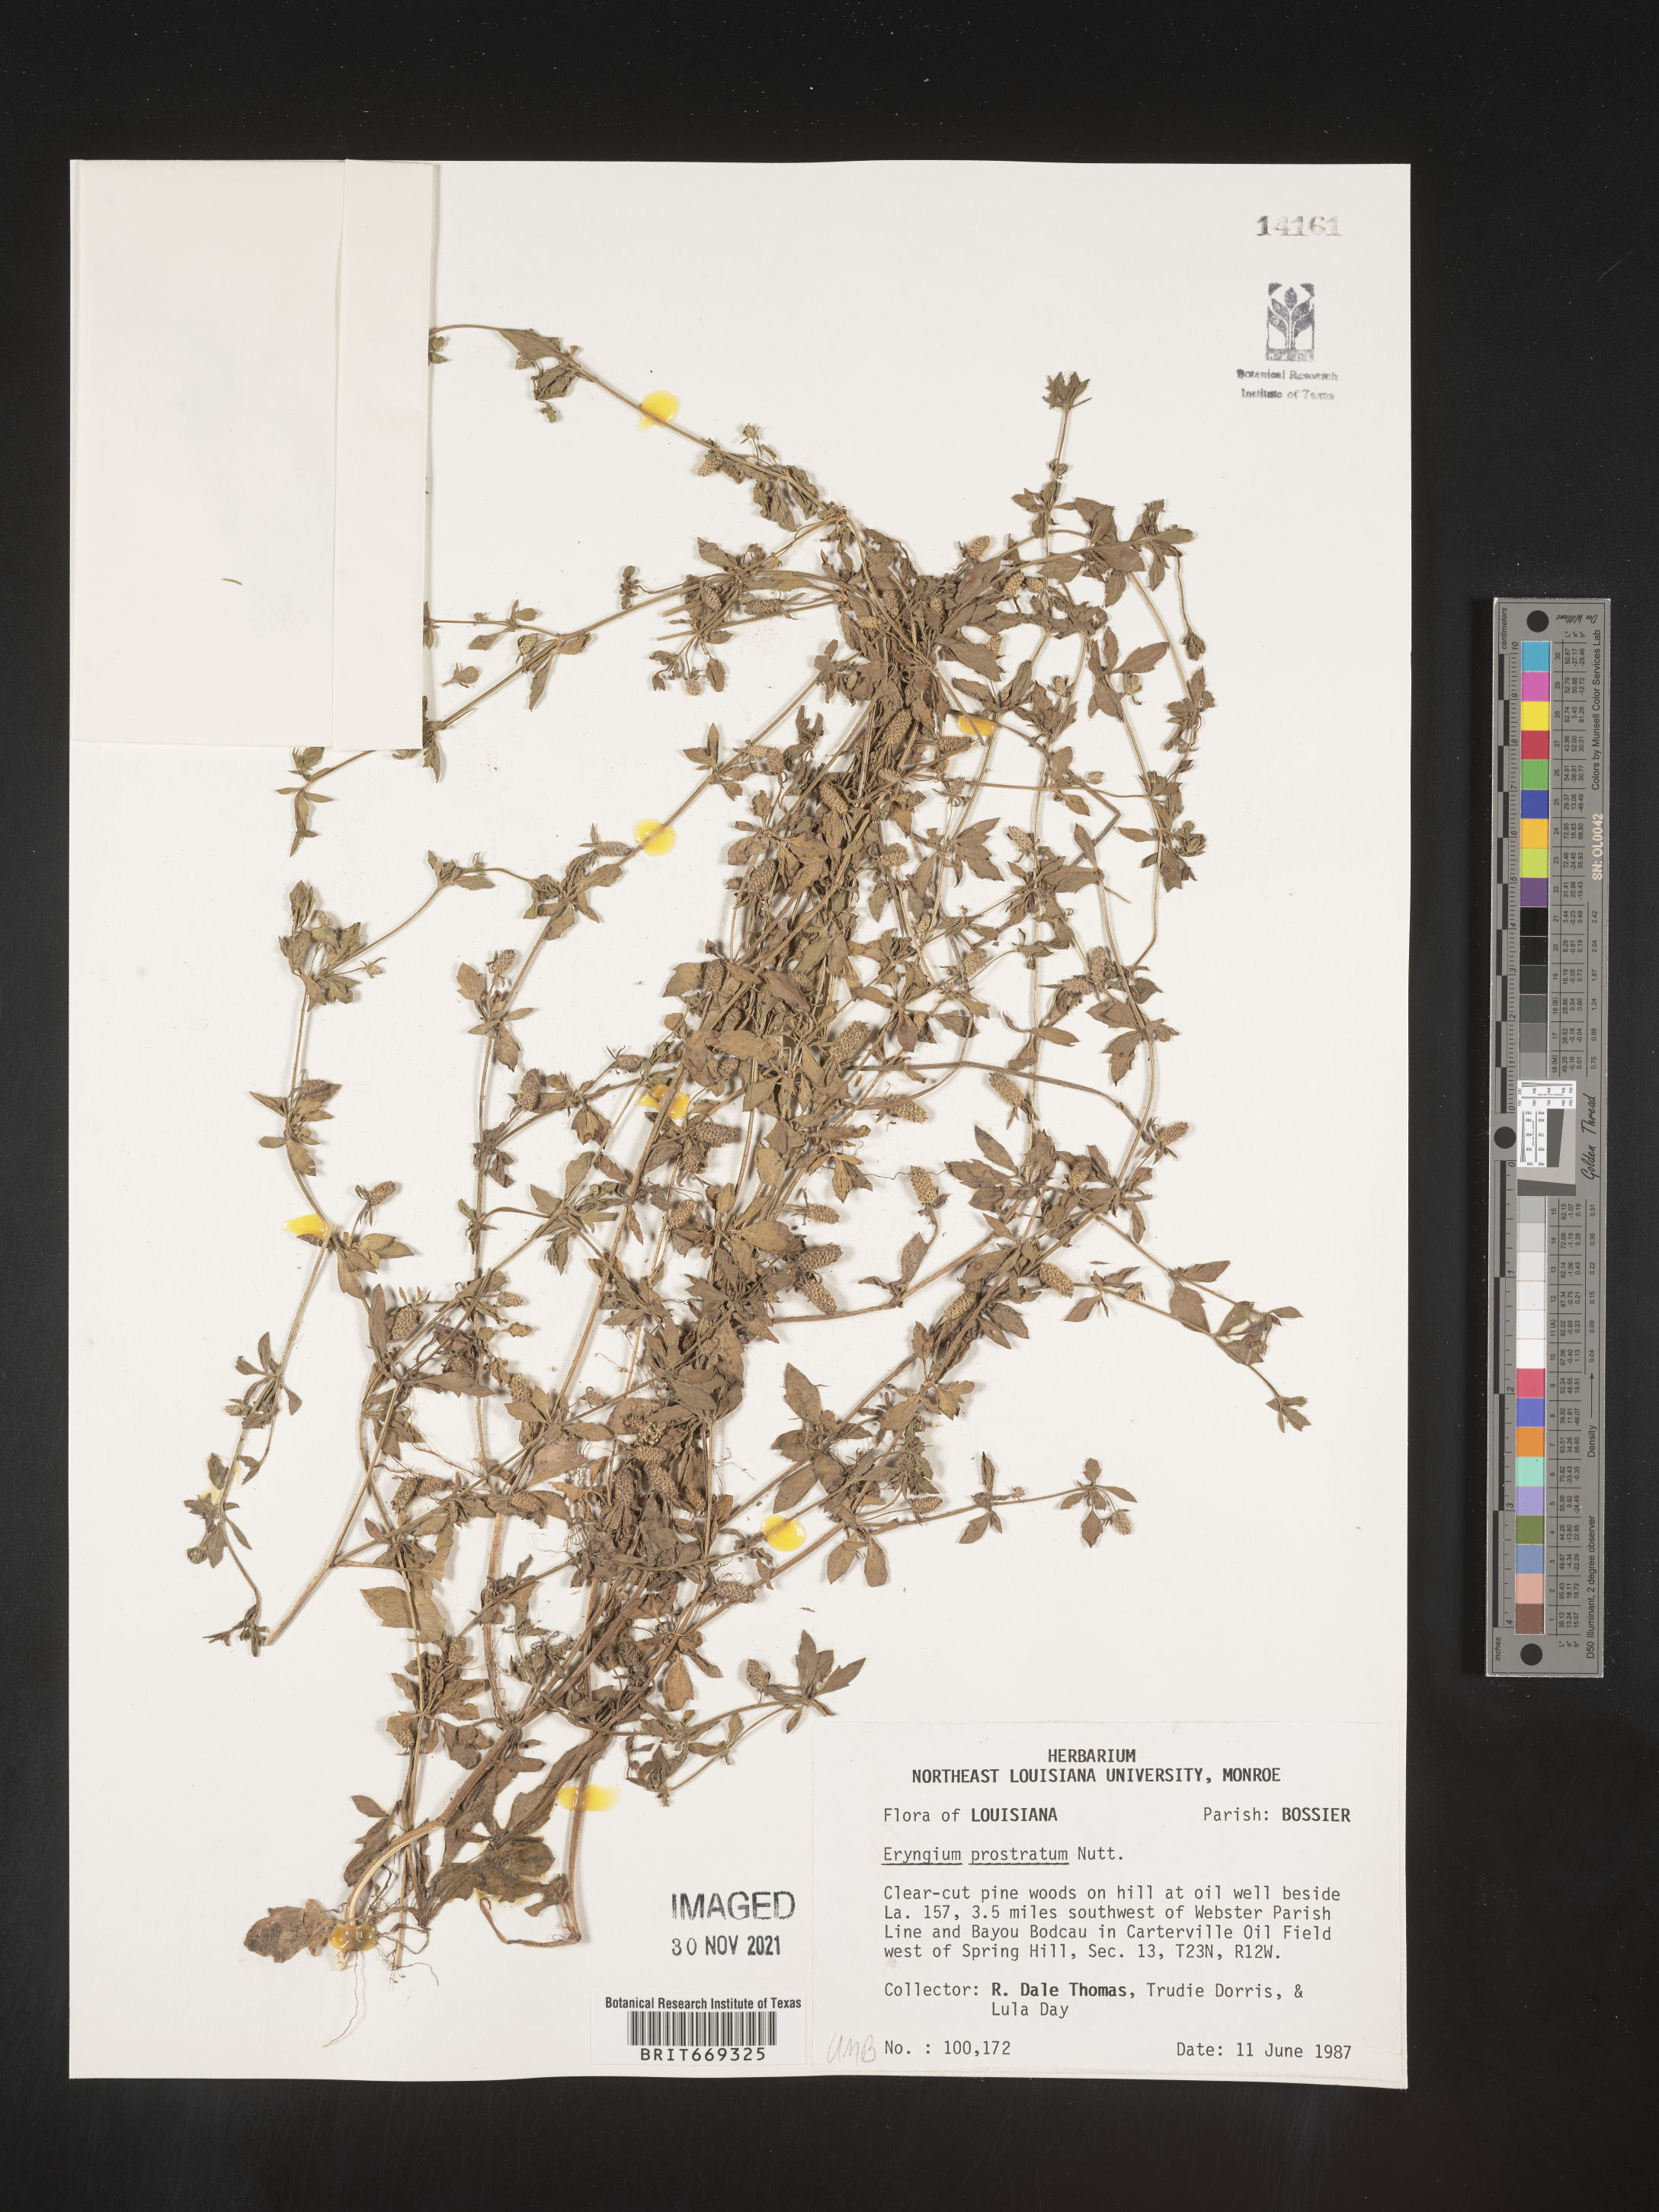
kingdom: Plantae
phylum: Tracheophyta
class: Magnoliopsida
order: Apiales
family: Apiaceae
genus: Eryngium
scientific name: Eryngium prostratum
